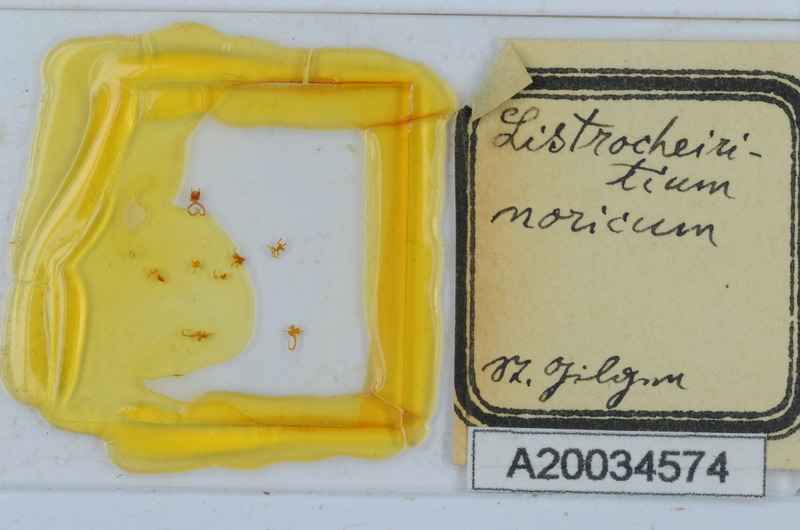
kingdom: Animalia
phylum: Arthropoda
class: Diplopoda
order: Chordeumatida
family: Craspedosomatidae
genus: Listrocheiritium
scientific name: Listrocheiritium noricum
